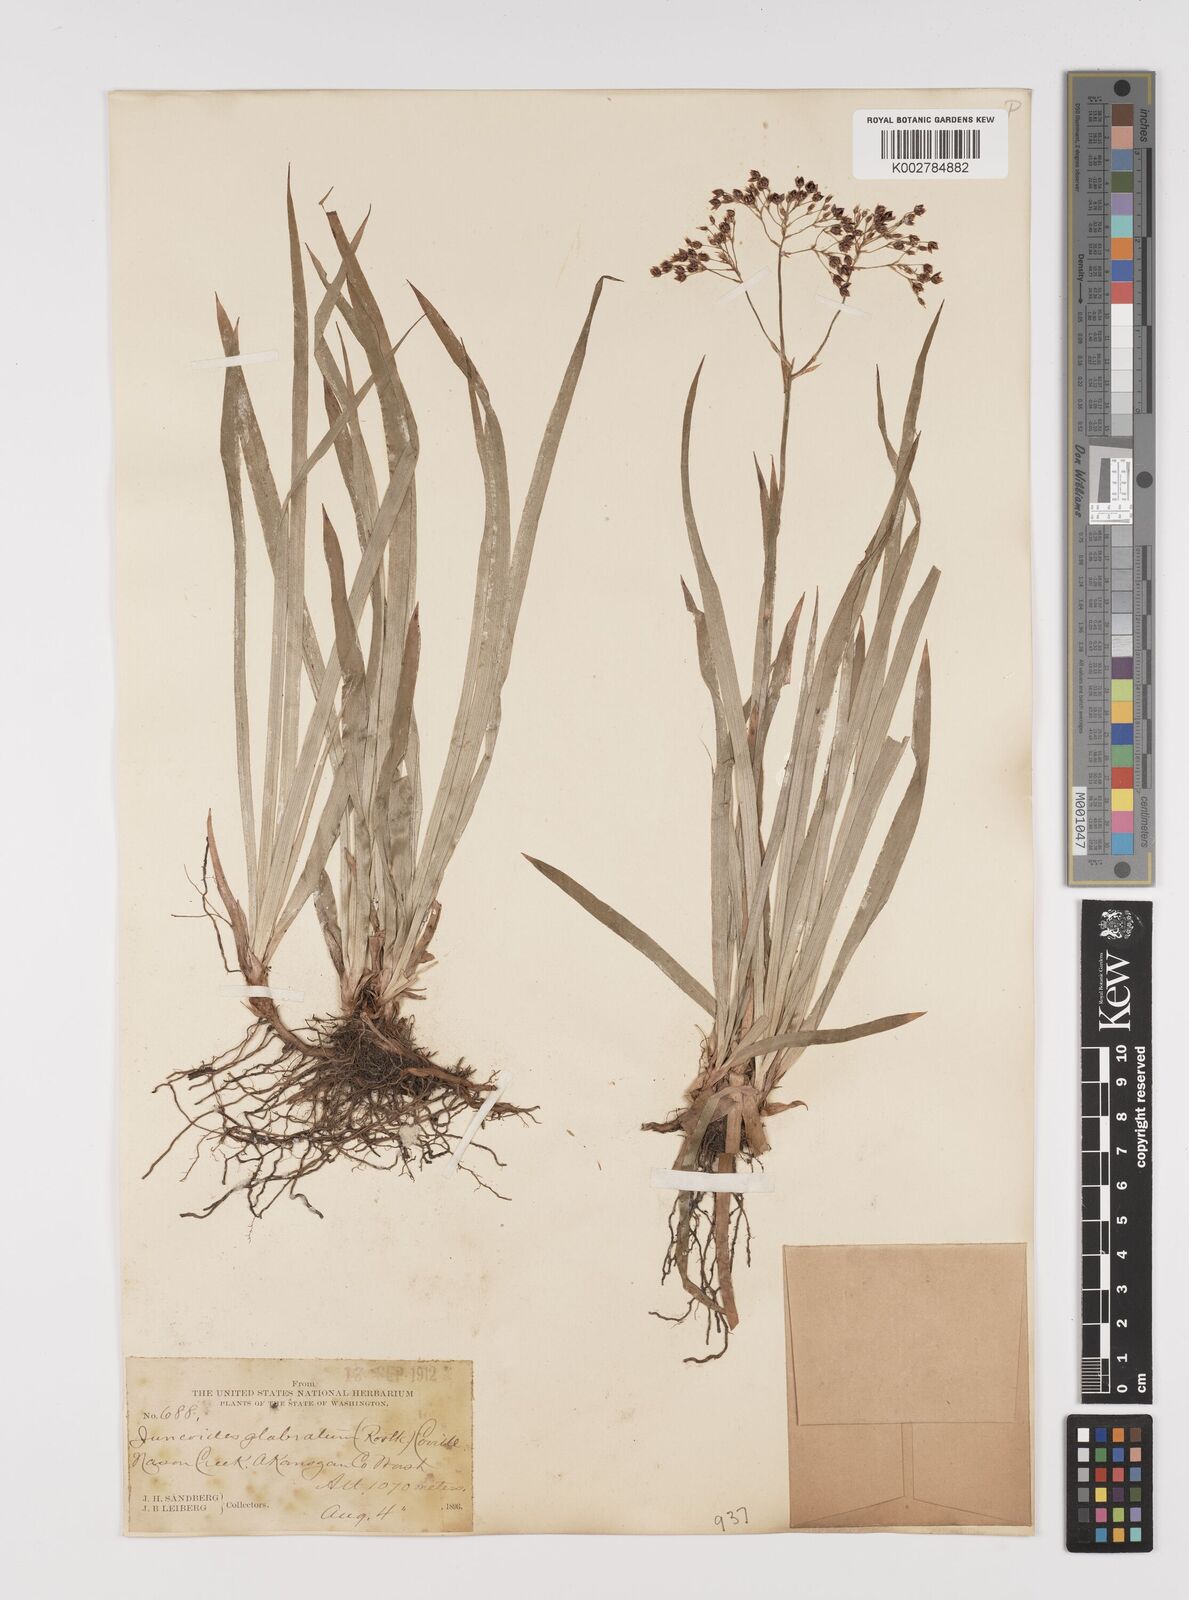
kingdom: Plantae
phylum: Tracheophyta
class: Liliopsida
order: Poales
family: Juncaceae
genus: Luzula
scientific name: Luzula glabrata
